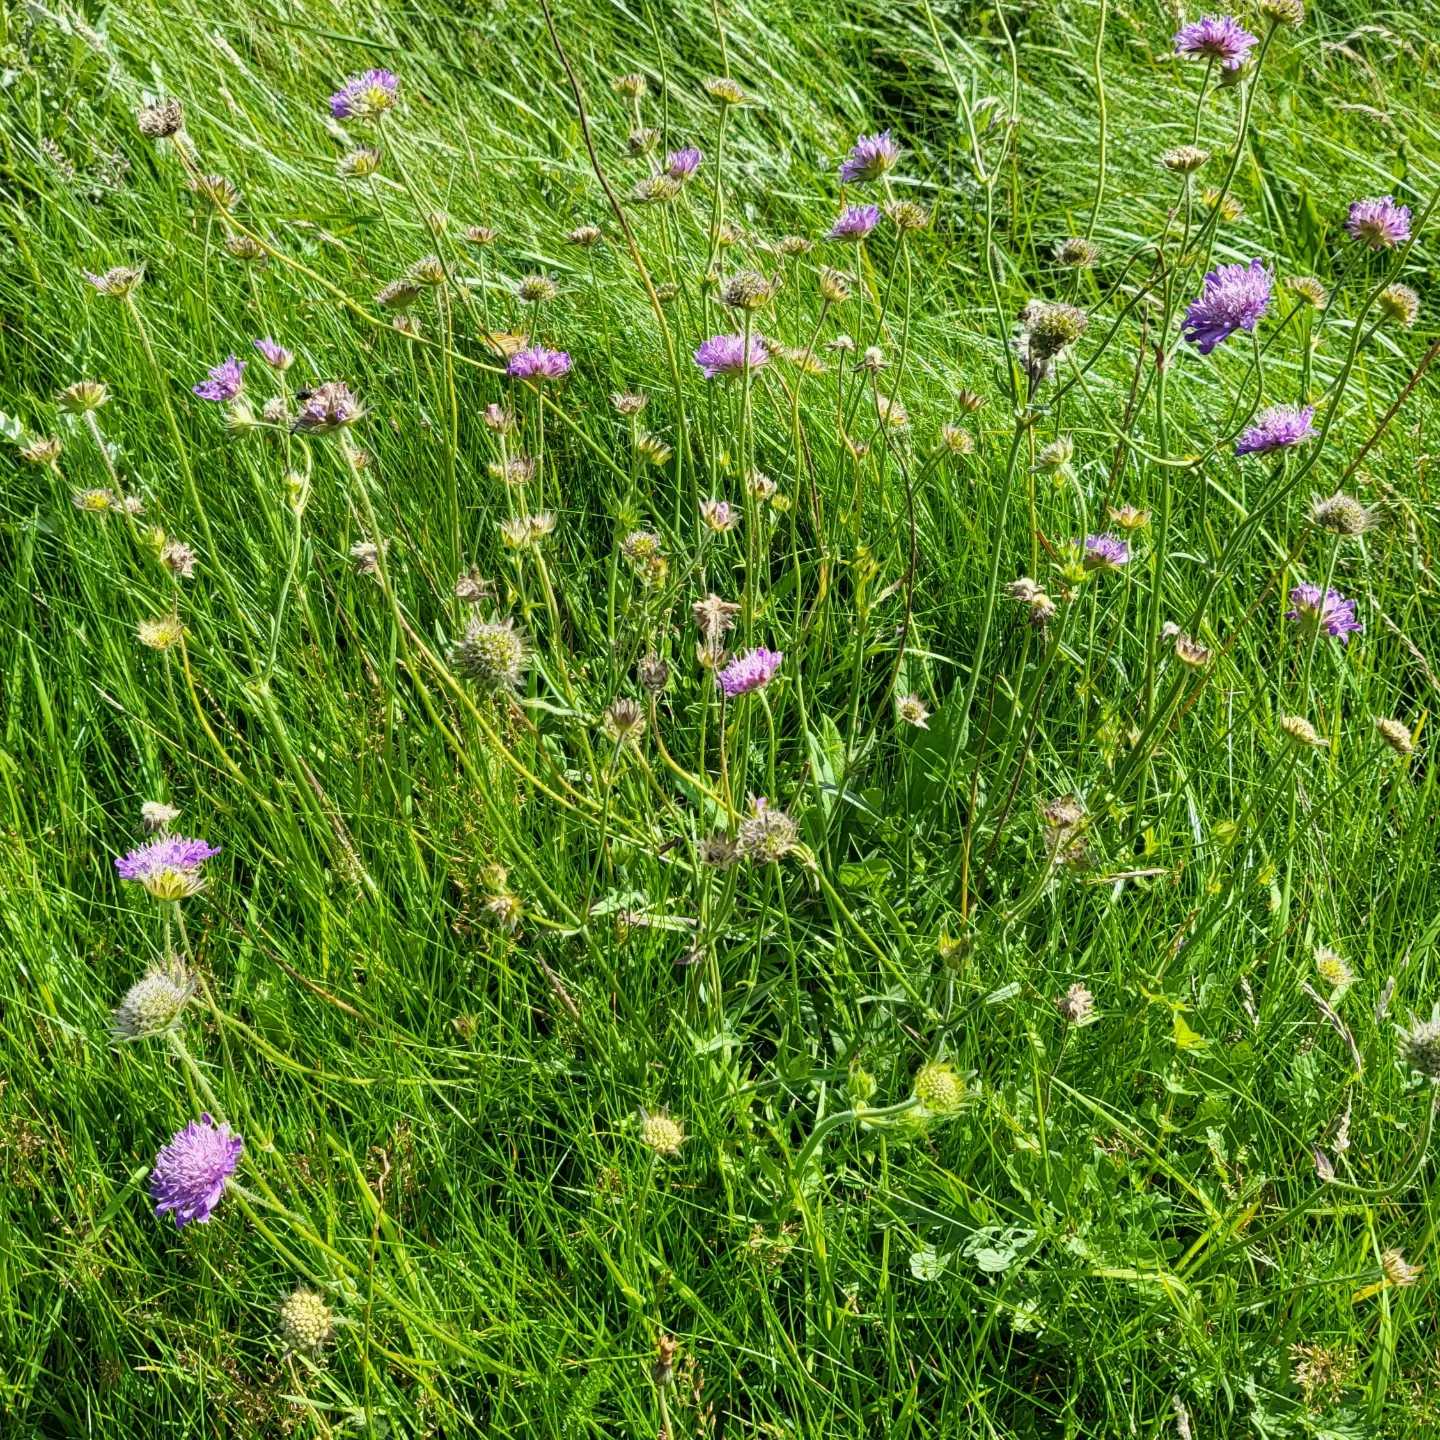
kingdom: Plantae
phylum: Tracheophyta
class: Magnoliopsida
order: Dipsacales
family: Caprifoliaceae
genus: Knautia
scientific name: Knautia arvensis
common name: Blåhat
